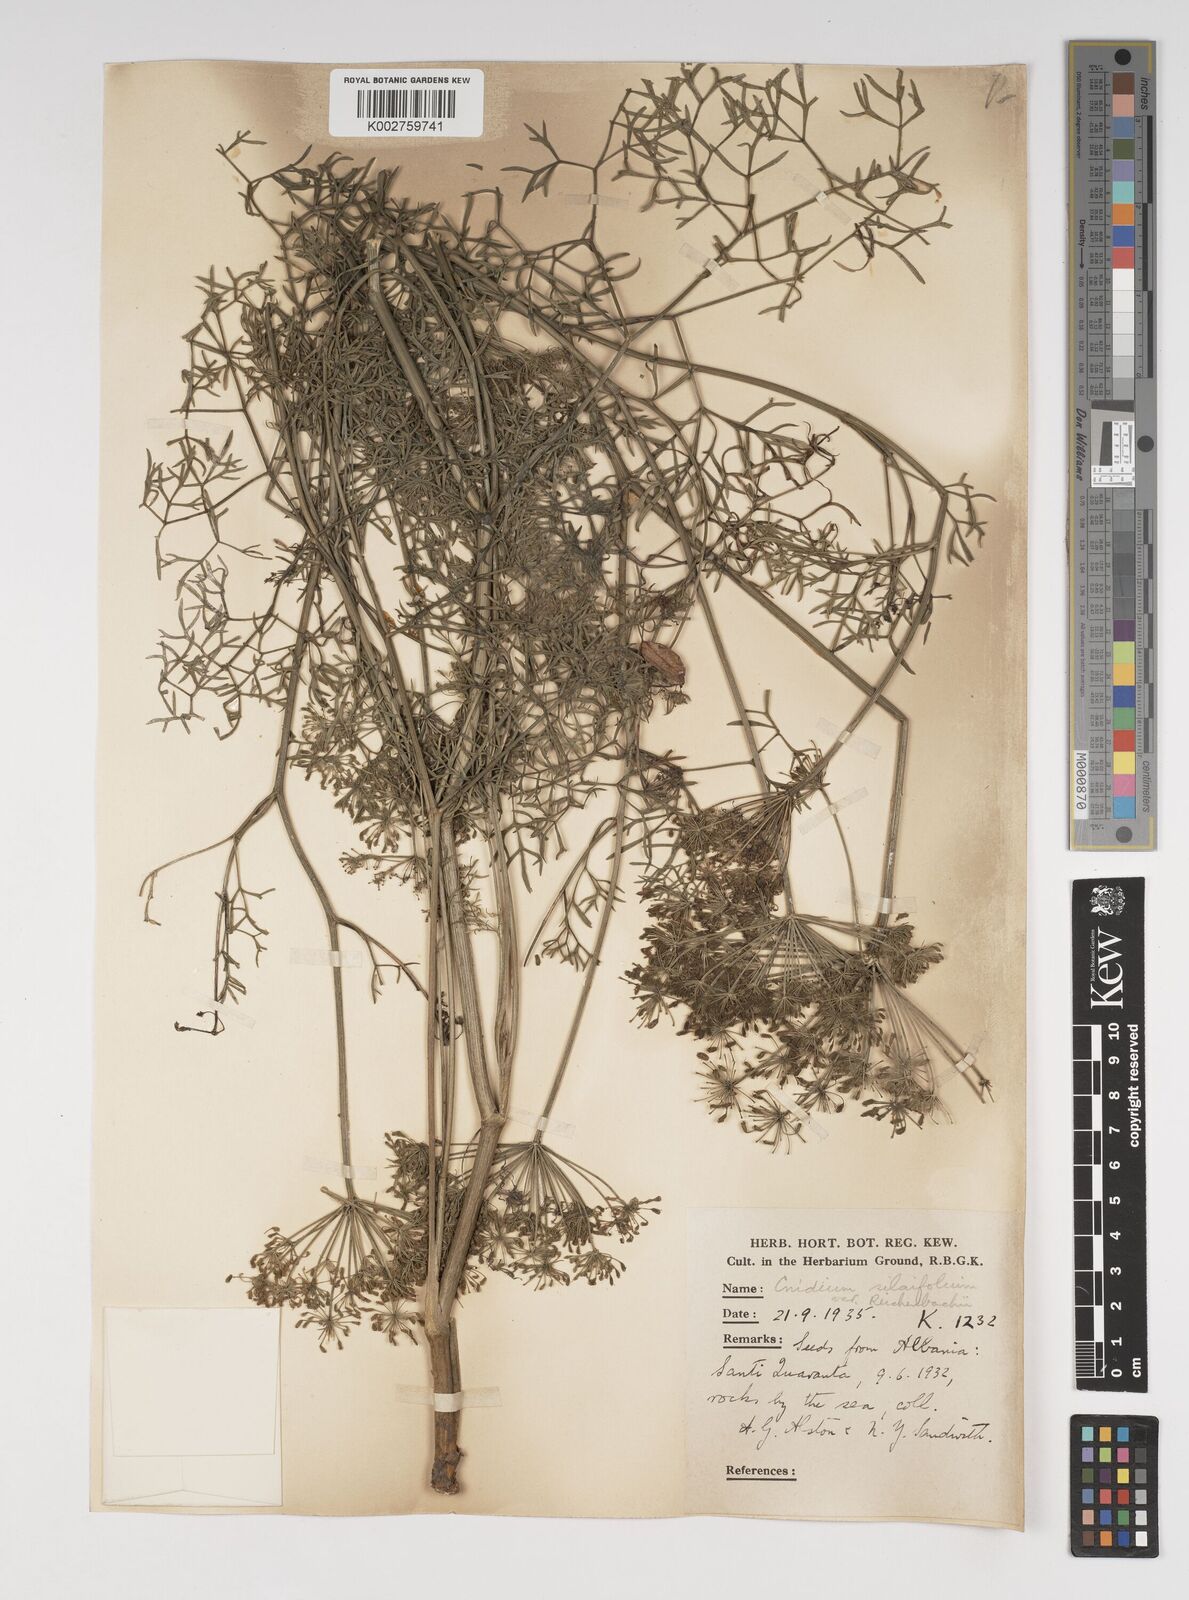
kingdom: Plantae
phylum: Tracheophyta
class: Magnoliopsida
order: Apiales
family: Apiaceae
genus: Katapsuxis
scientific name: Katapsuxis silaifolia
